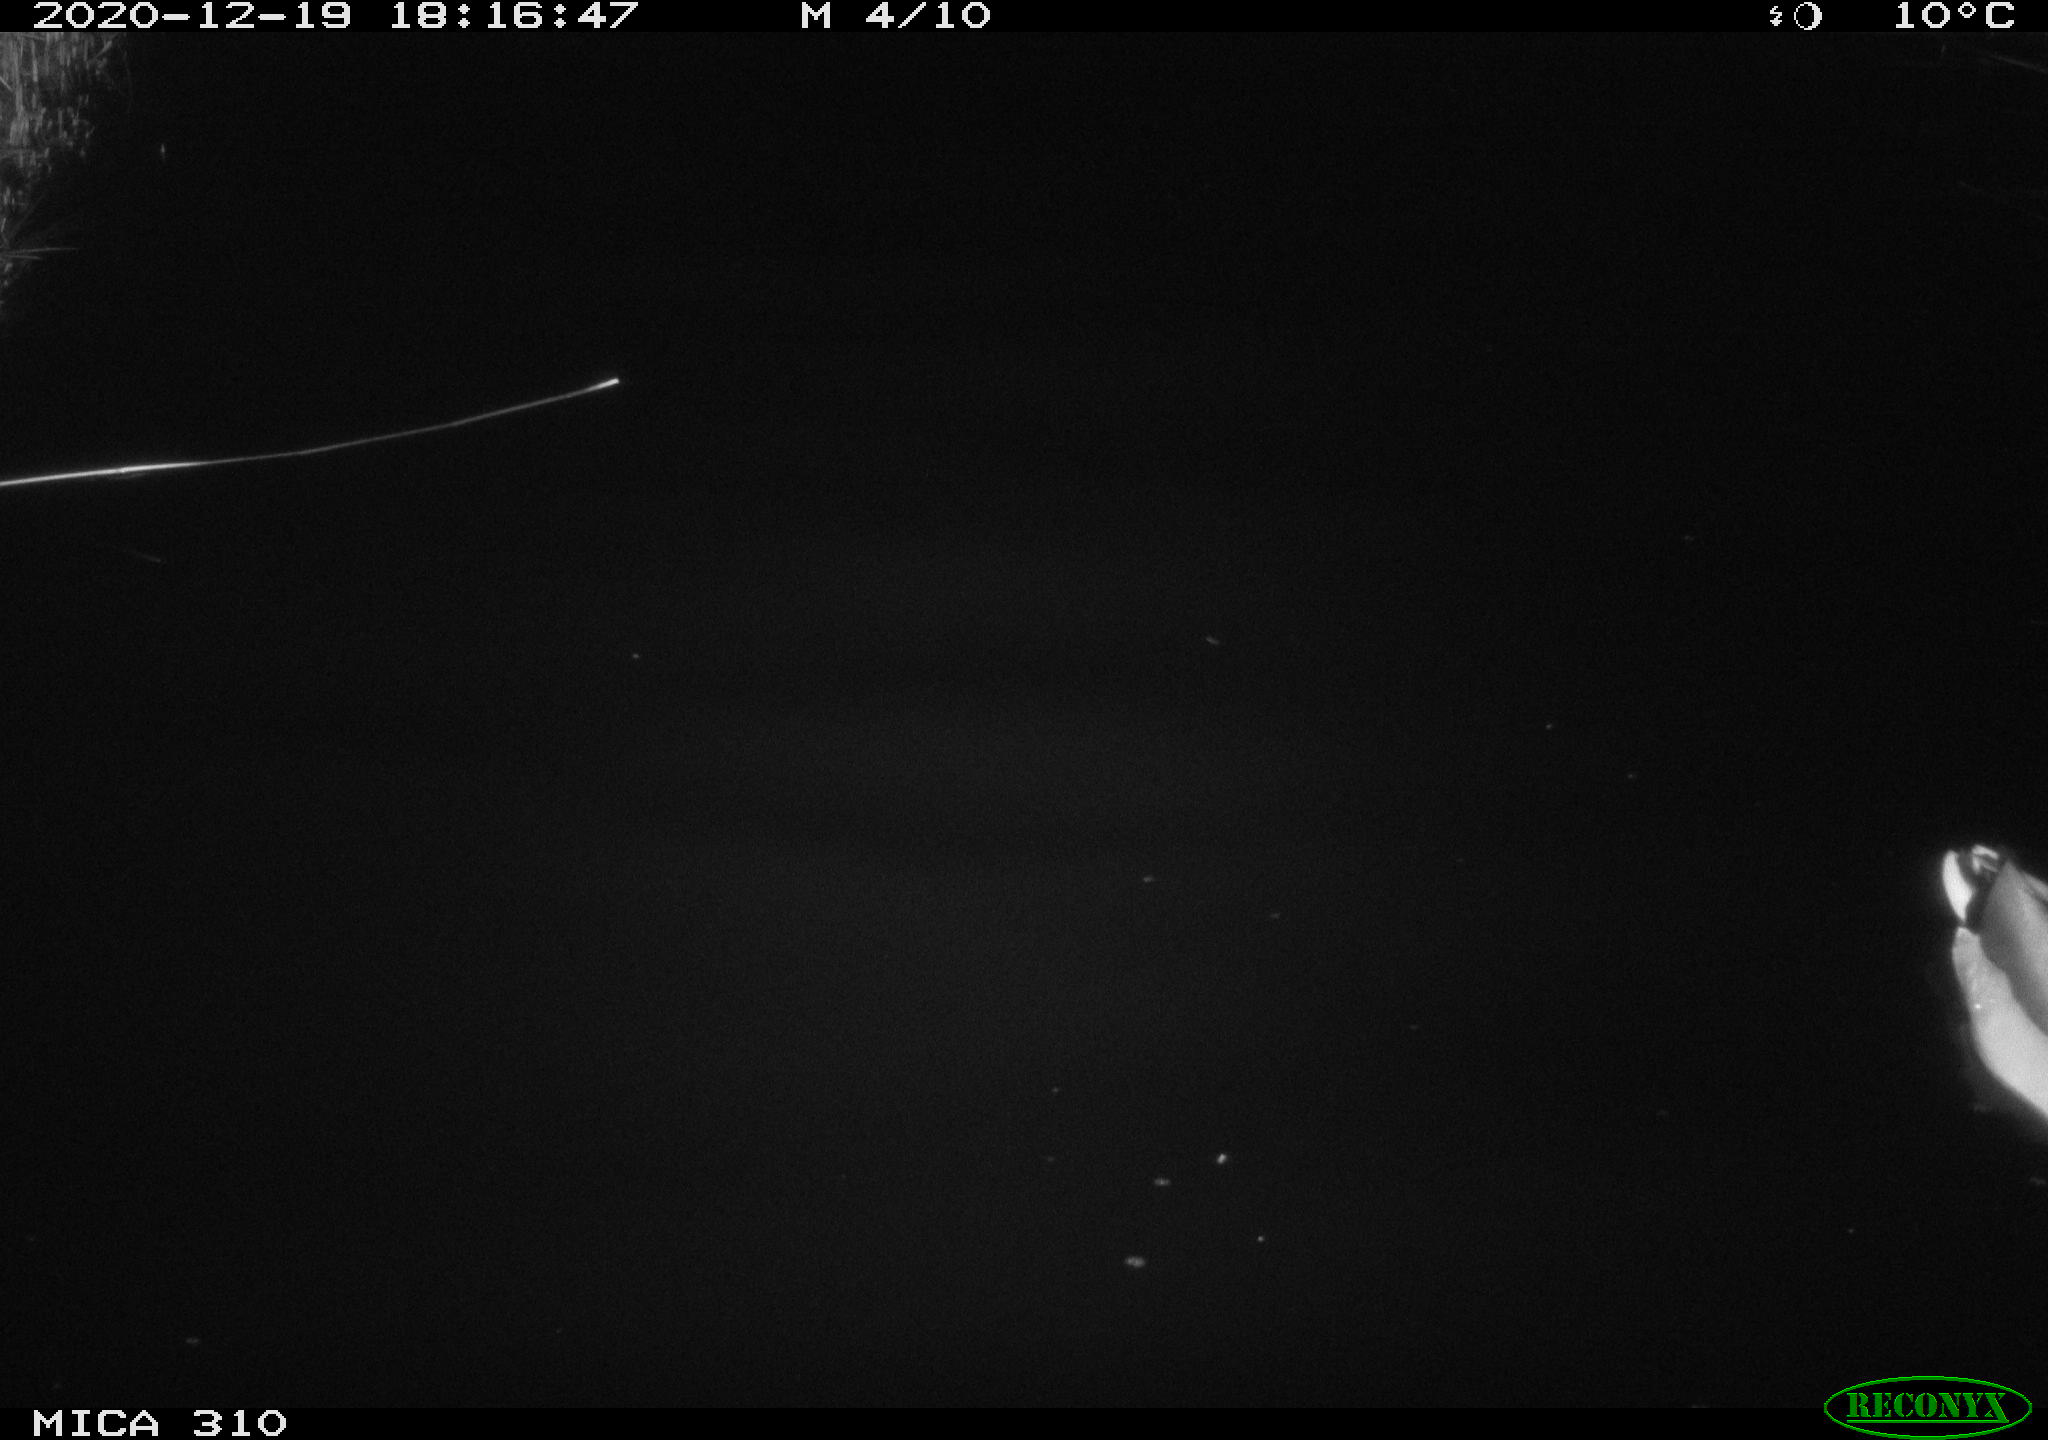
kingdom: Animalia
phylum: Chordata
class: Aves
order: Anseriformes
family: Anatidae
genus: Anas
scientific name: Anas platyrhynchos
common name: Mallard
